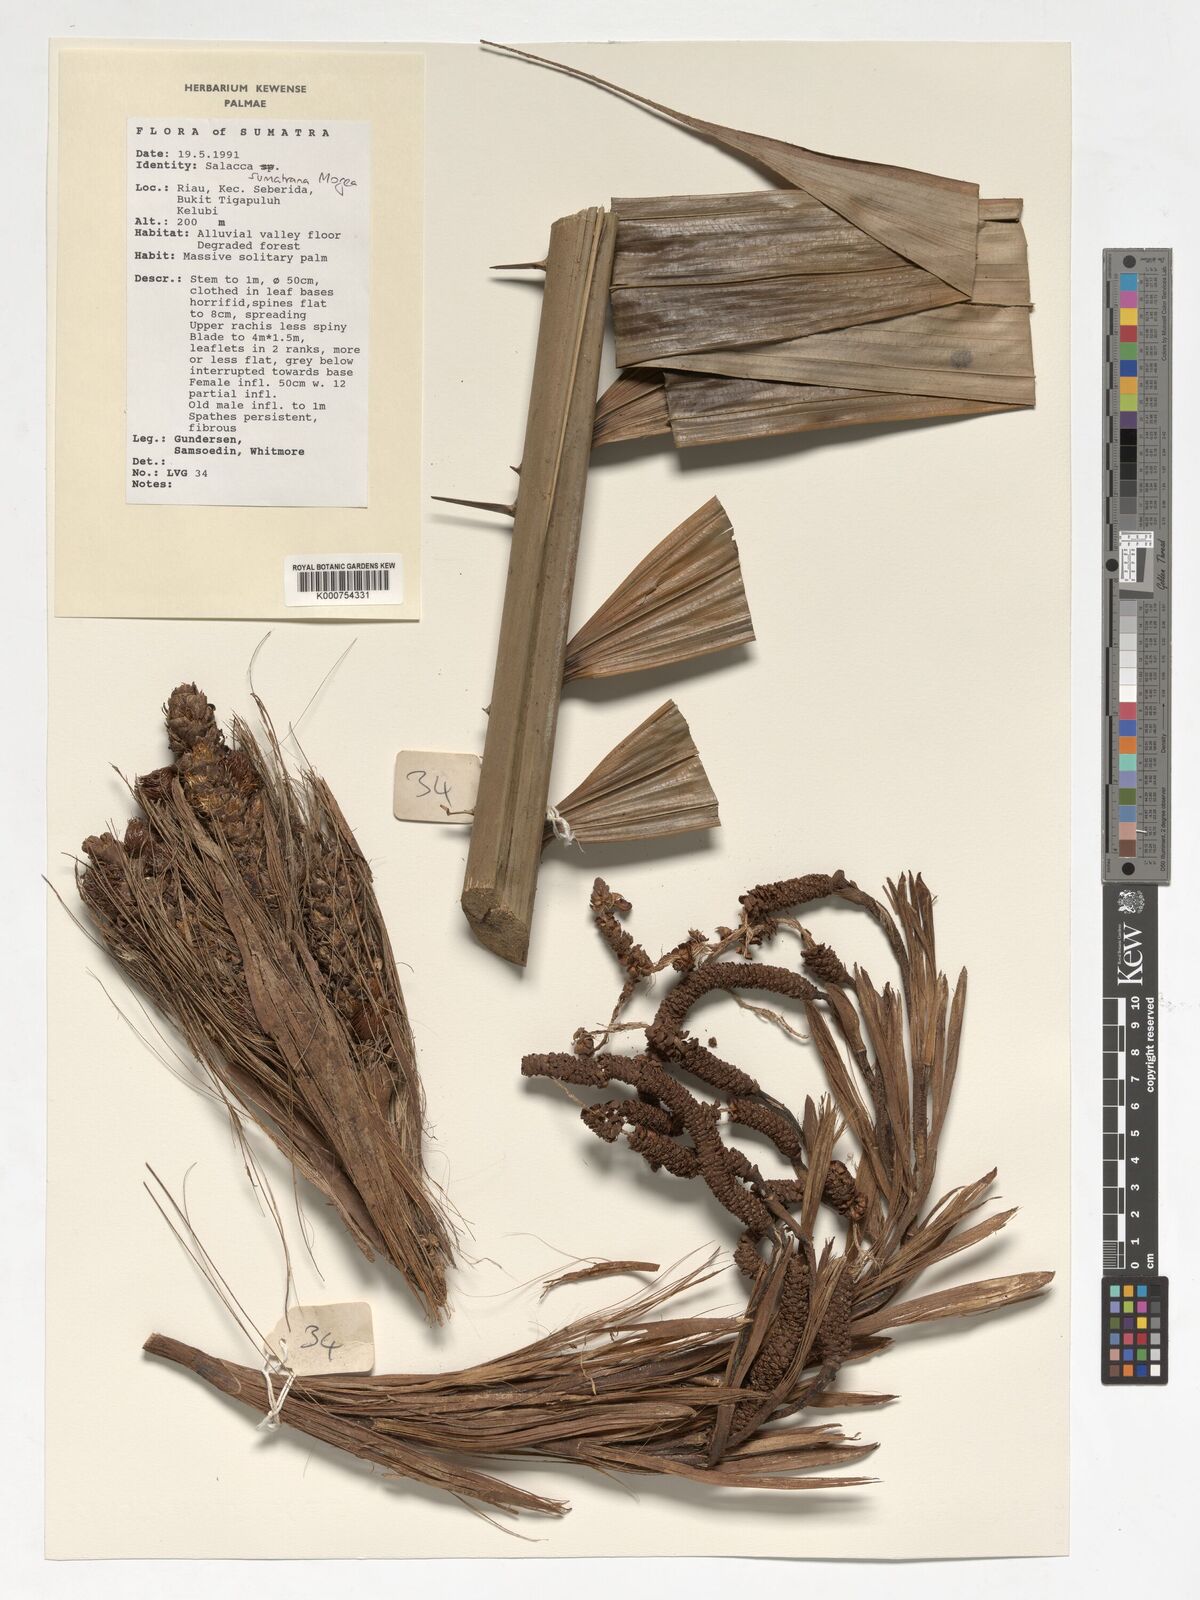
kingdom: Plantae
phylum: Tracheophyta
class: Liliopsida
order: Arecales
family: Arecaceae
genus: Salacca
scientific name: Salacca sumatrana
